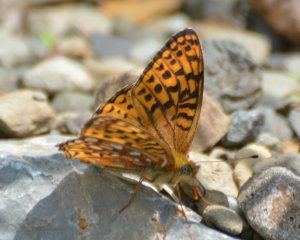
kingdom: Animalia
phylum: Arthropoda
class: Insecta
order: Lepidoptera
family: Nymphalidae
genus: Speyeria
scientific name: Speyeria atlantis
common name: Atlantis Fritillary
